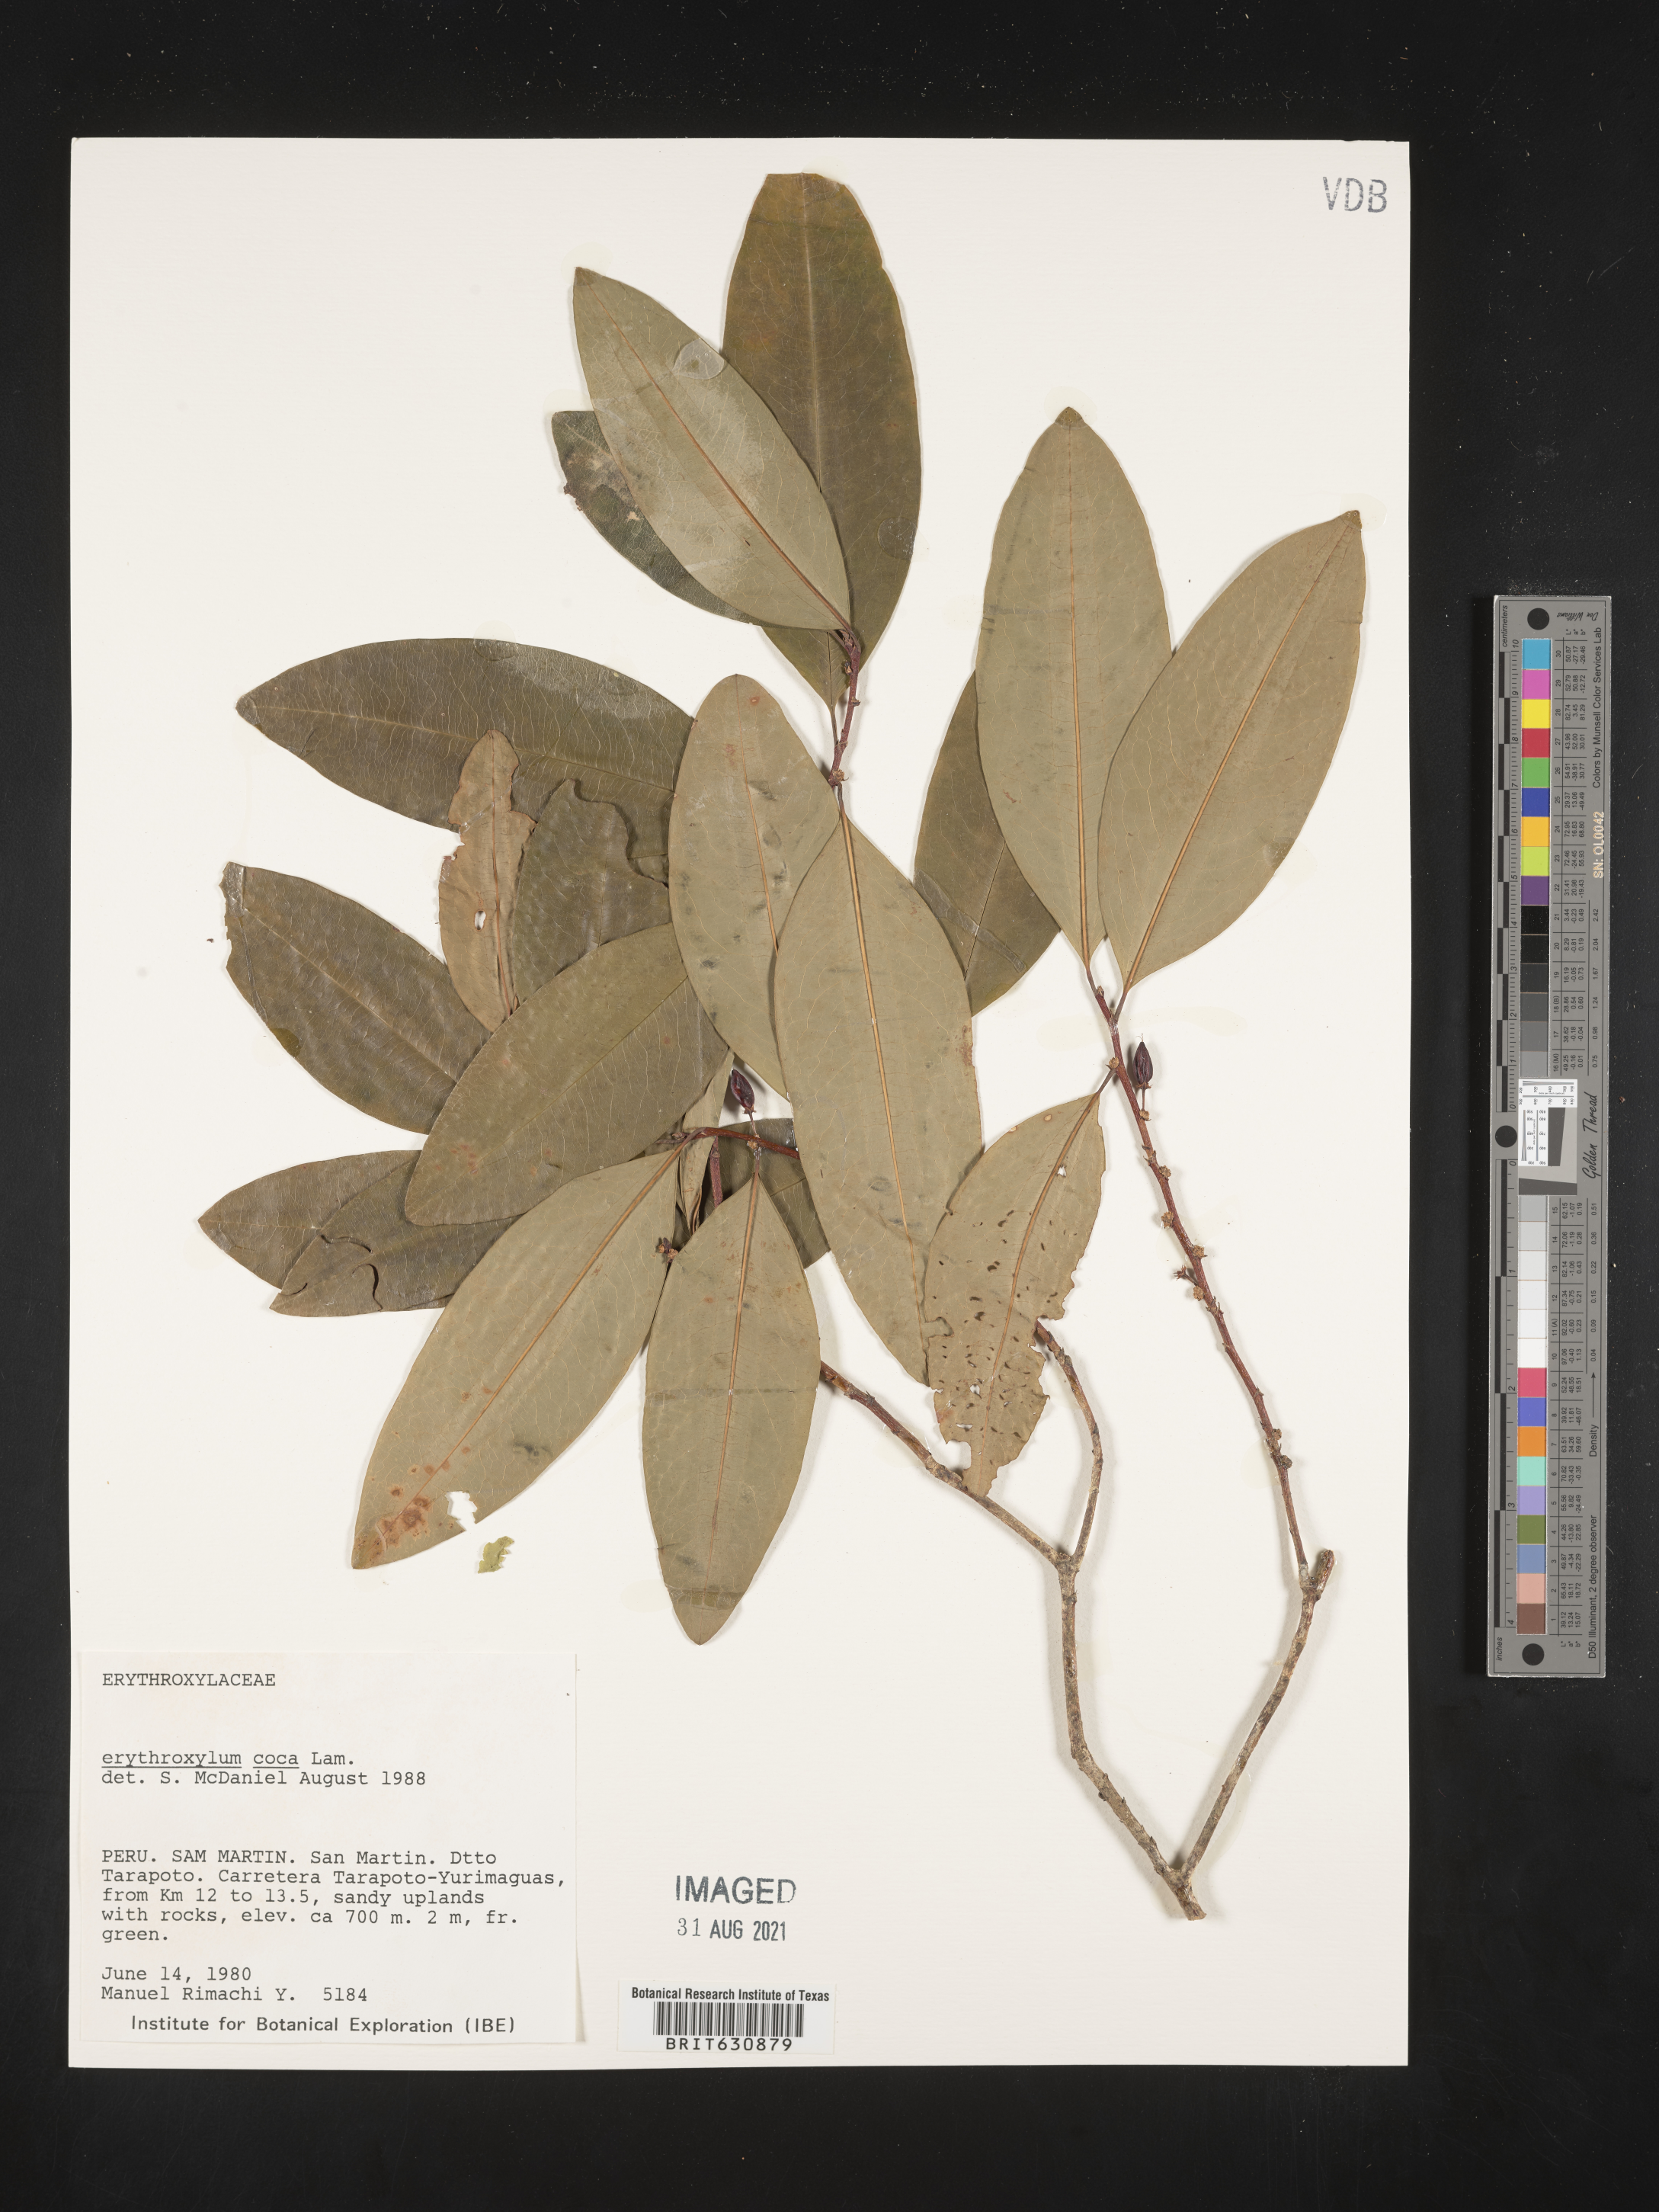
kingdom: Plantae
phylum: Tracheophyta
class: Magnoliopsida
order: Malpighiales
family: Erythroxylaceae
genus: Erythroxylum
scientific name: Erythroxylum
